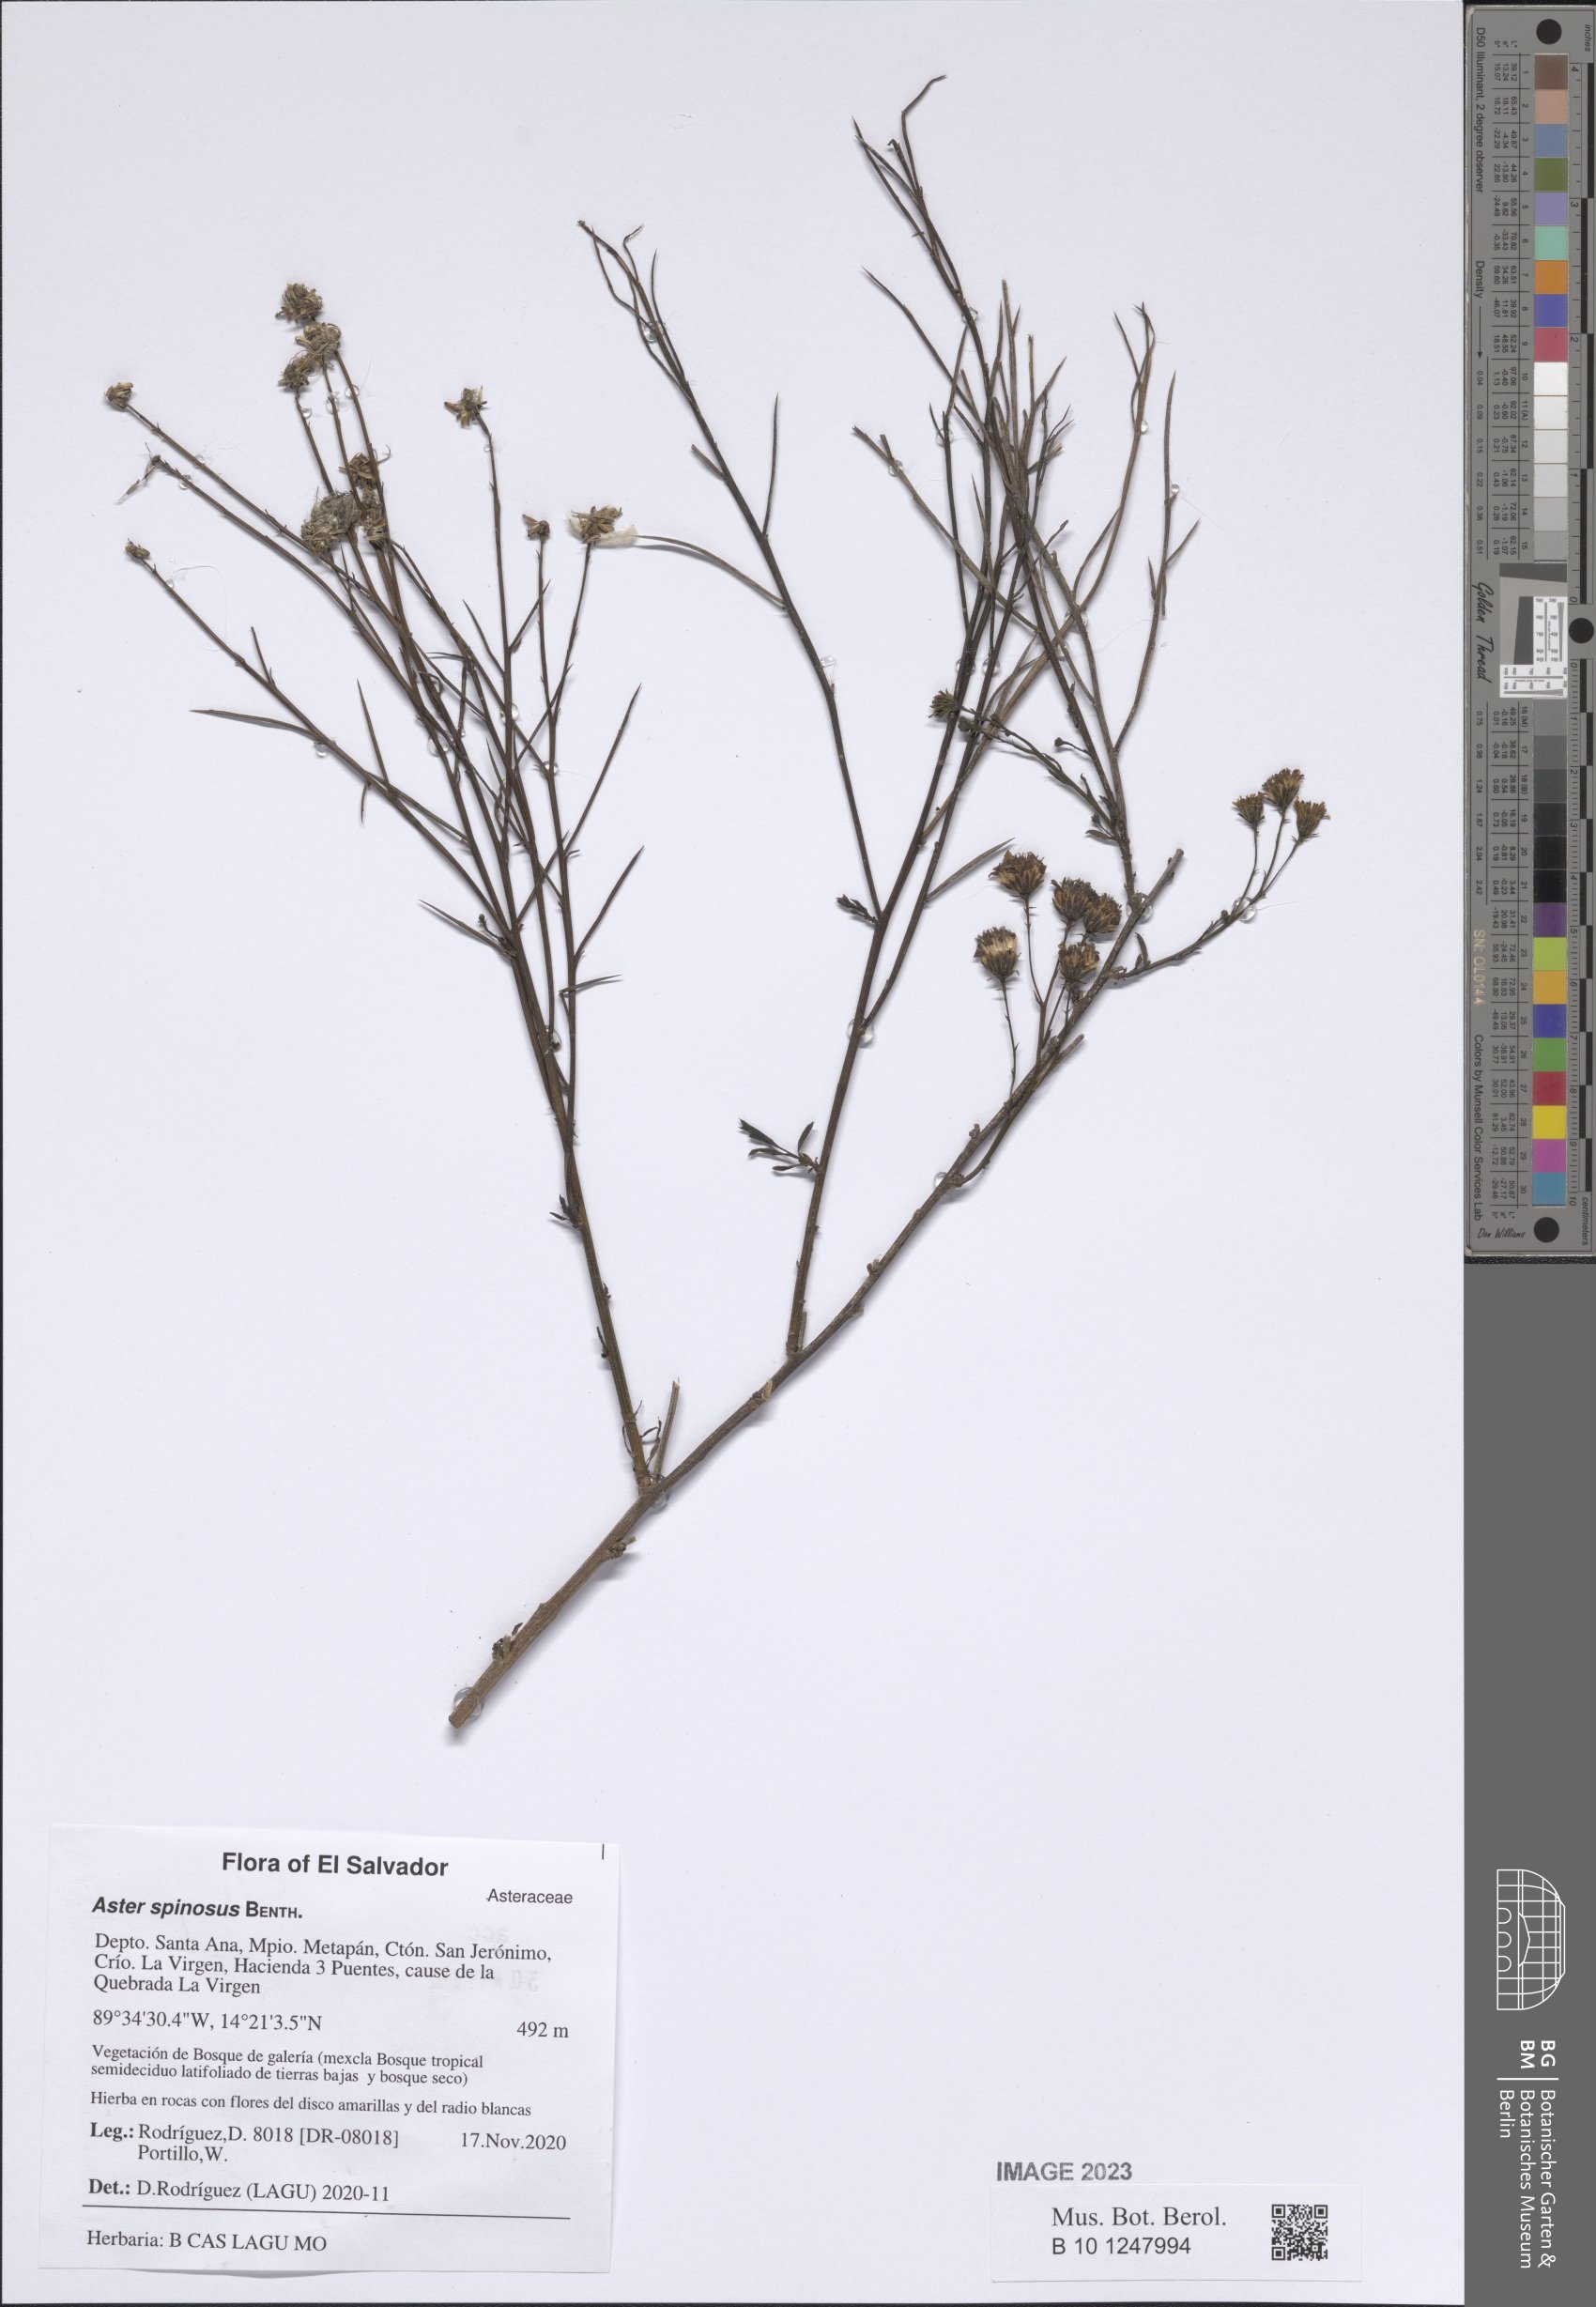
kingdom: Plantae
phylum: Tracheophyta
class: Magnoliopsida
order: Asterales
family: Asteraceae
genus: Chloracantha
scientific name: Chloracantha spinosa
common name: Mexican devilweed
